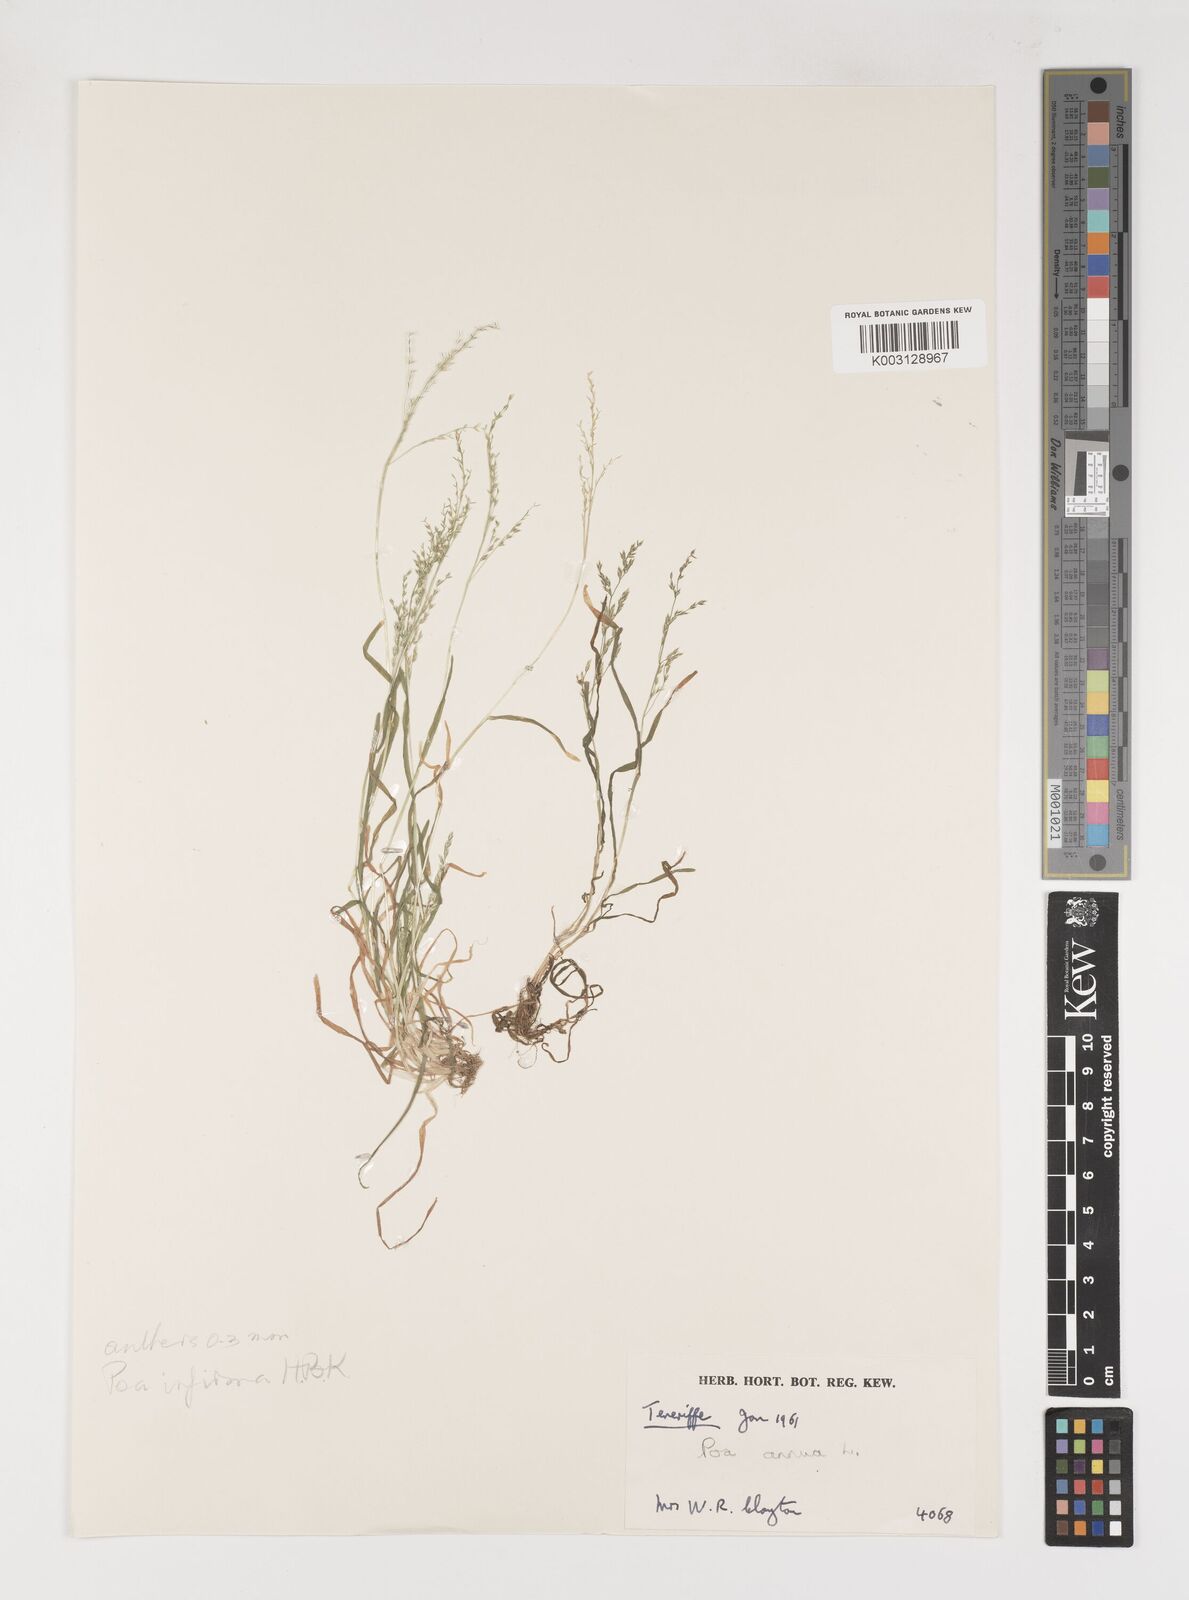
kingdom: Plantae
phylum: Tracheophyta
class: Liliopsida
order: Poales
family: Poaceae
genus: Poa
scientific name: Poa annua
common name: Annual bluegrass
